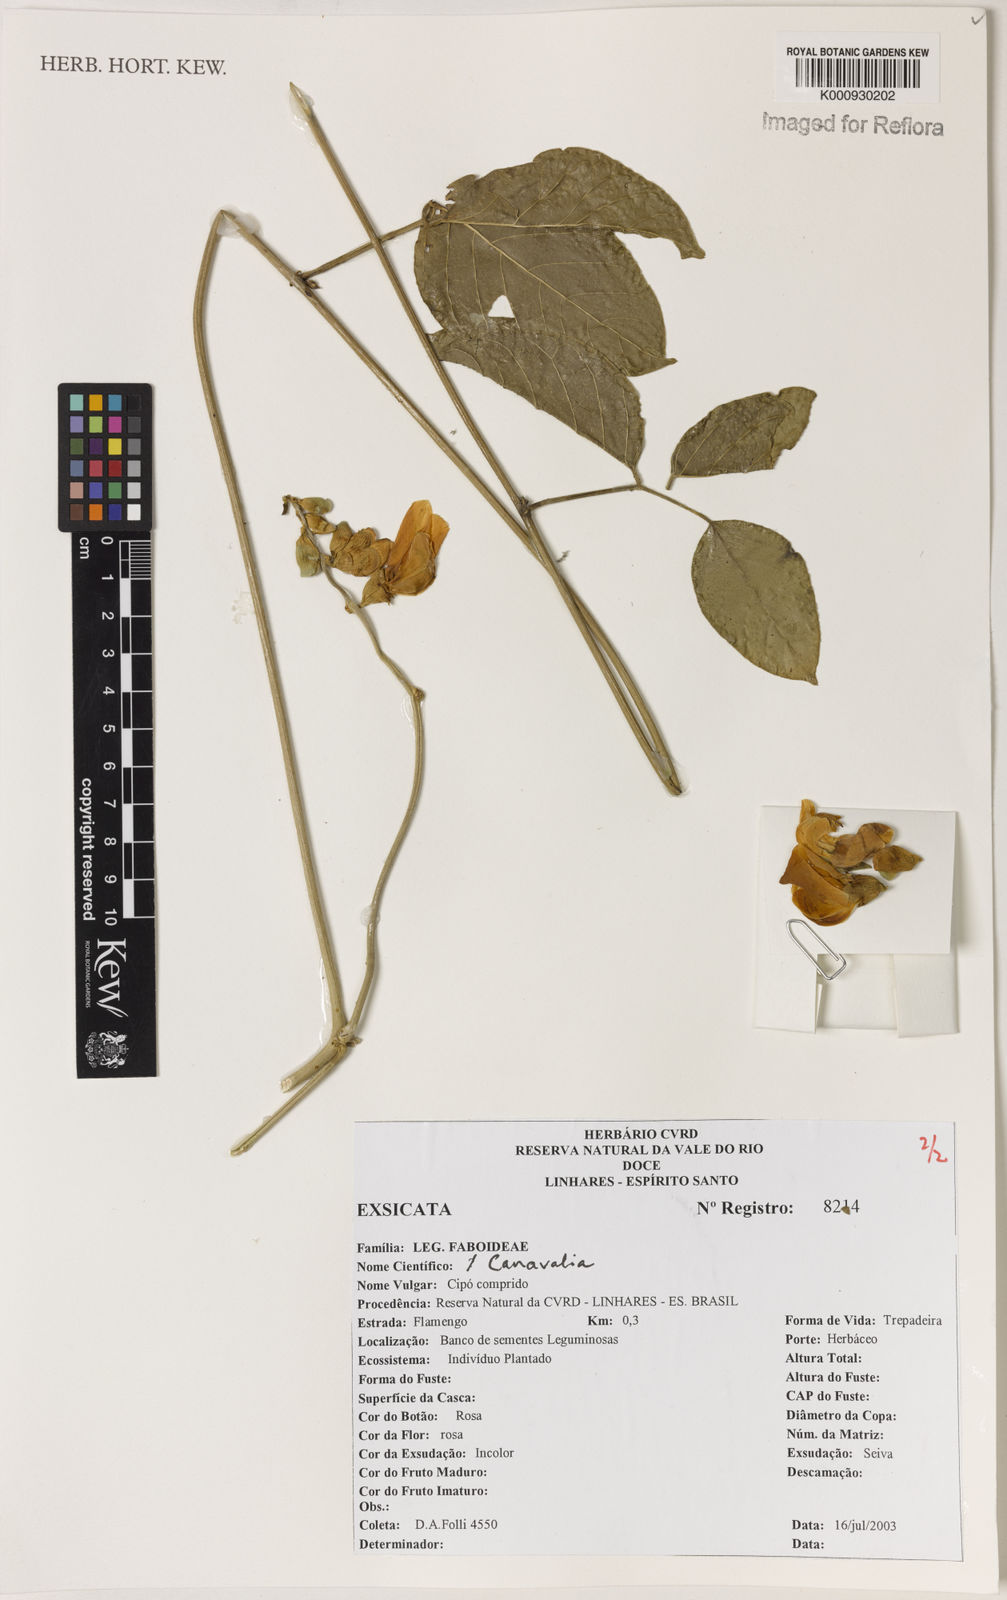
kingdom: Plantae
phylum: Tracheophyta
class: Magnoliopsida
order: Fabales
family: Fabaceae
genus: Canavalia
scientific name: Canavalia
